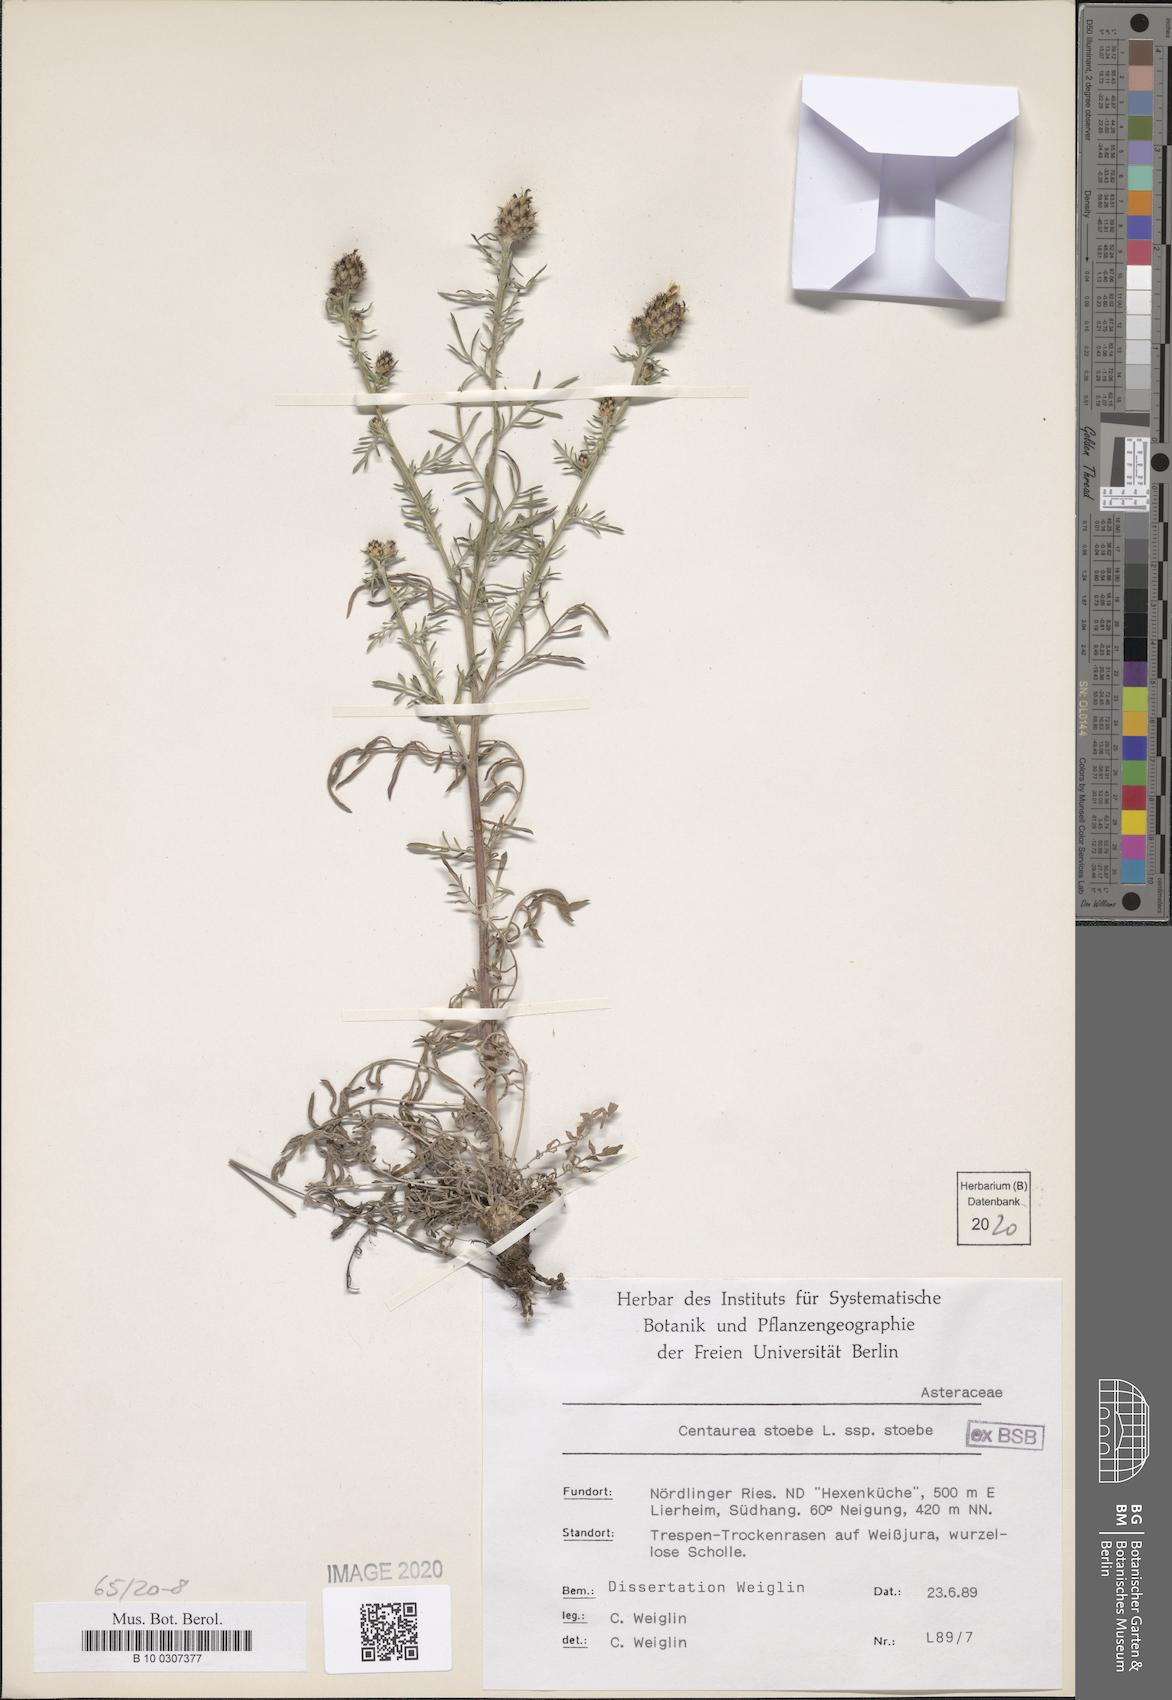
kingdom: Plantae
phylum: Tracheophyta
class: Magnoliopsida
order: Asterales
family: Asteraceae
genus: Centaurea
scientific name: Centaurea stoebe
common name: Spotted knapweed
